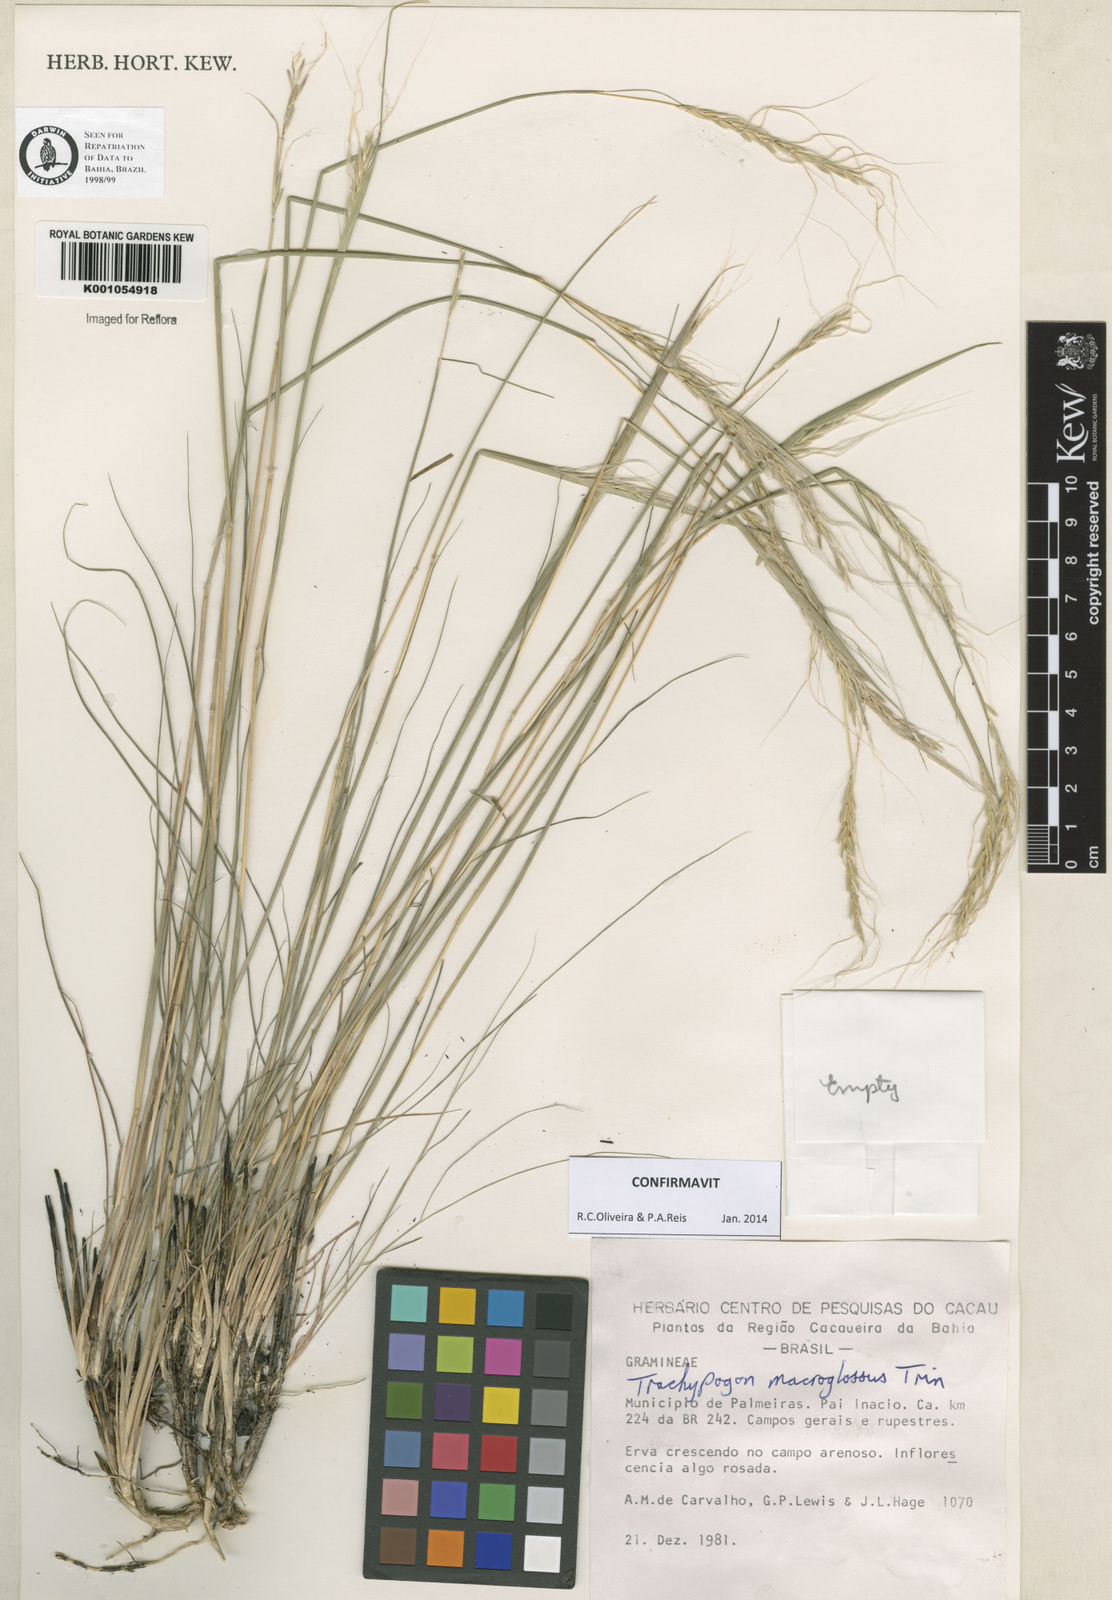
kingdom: Plantae
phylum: Tracheophyta
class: Liliopsida
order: Poales
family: Poaceae
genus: Trachypogon
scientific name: Trachypogon macroglossus
